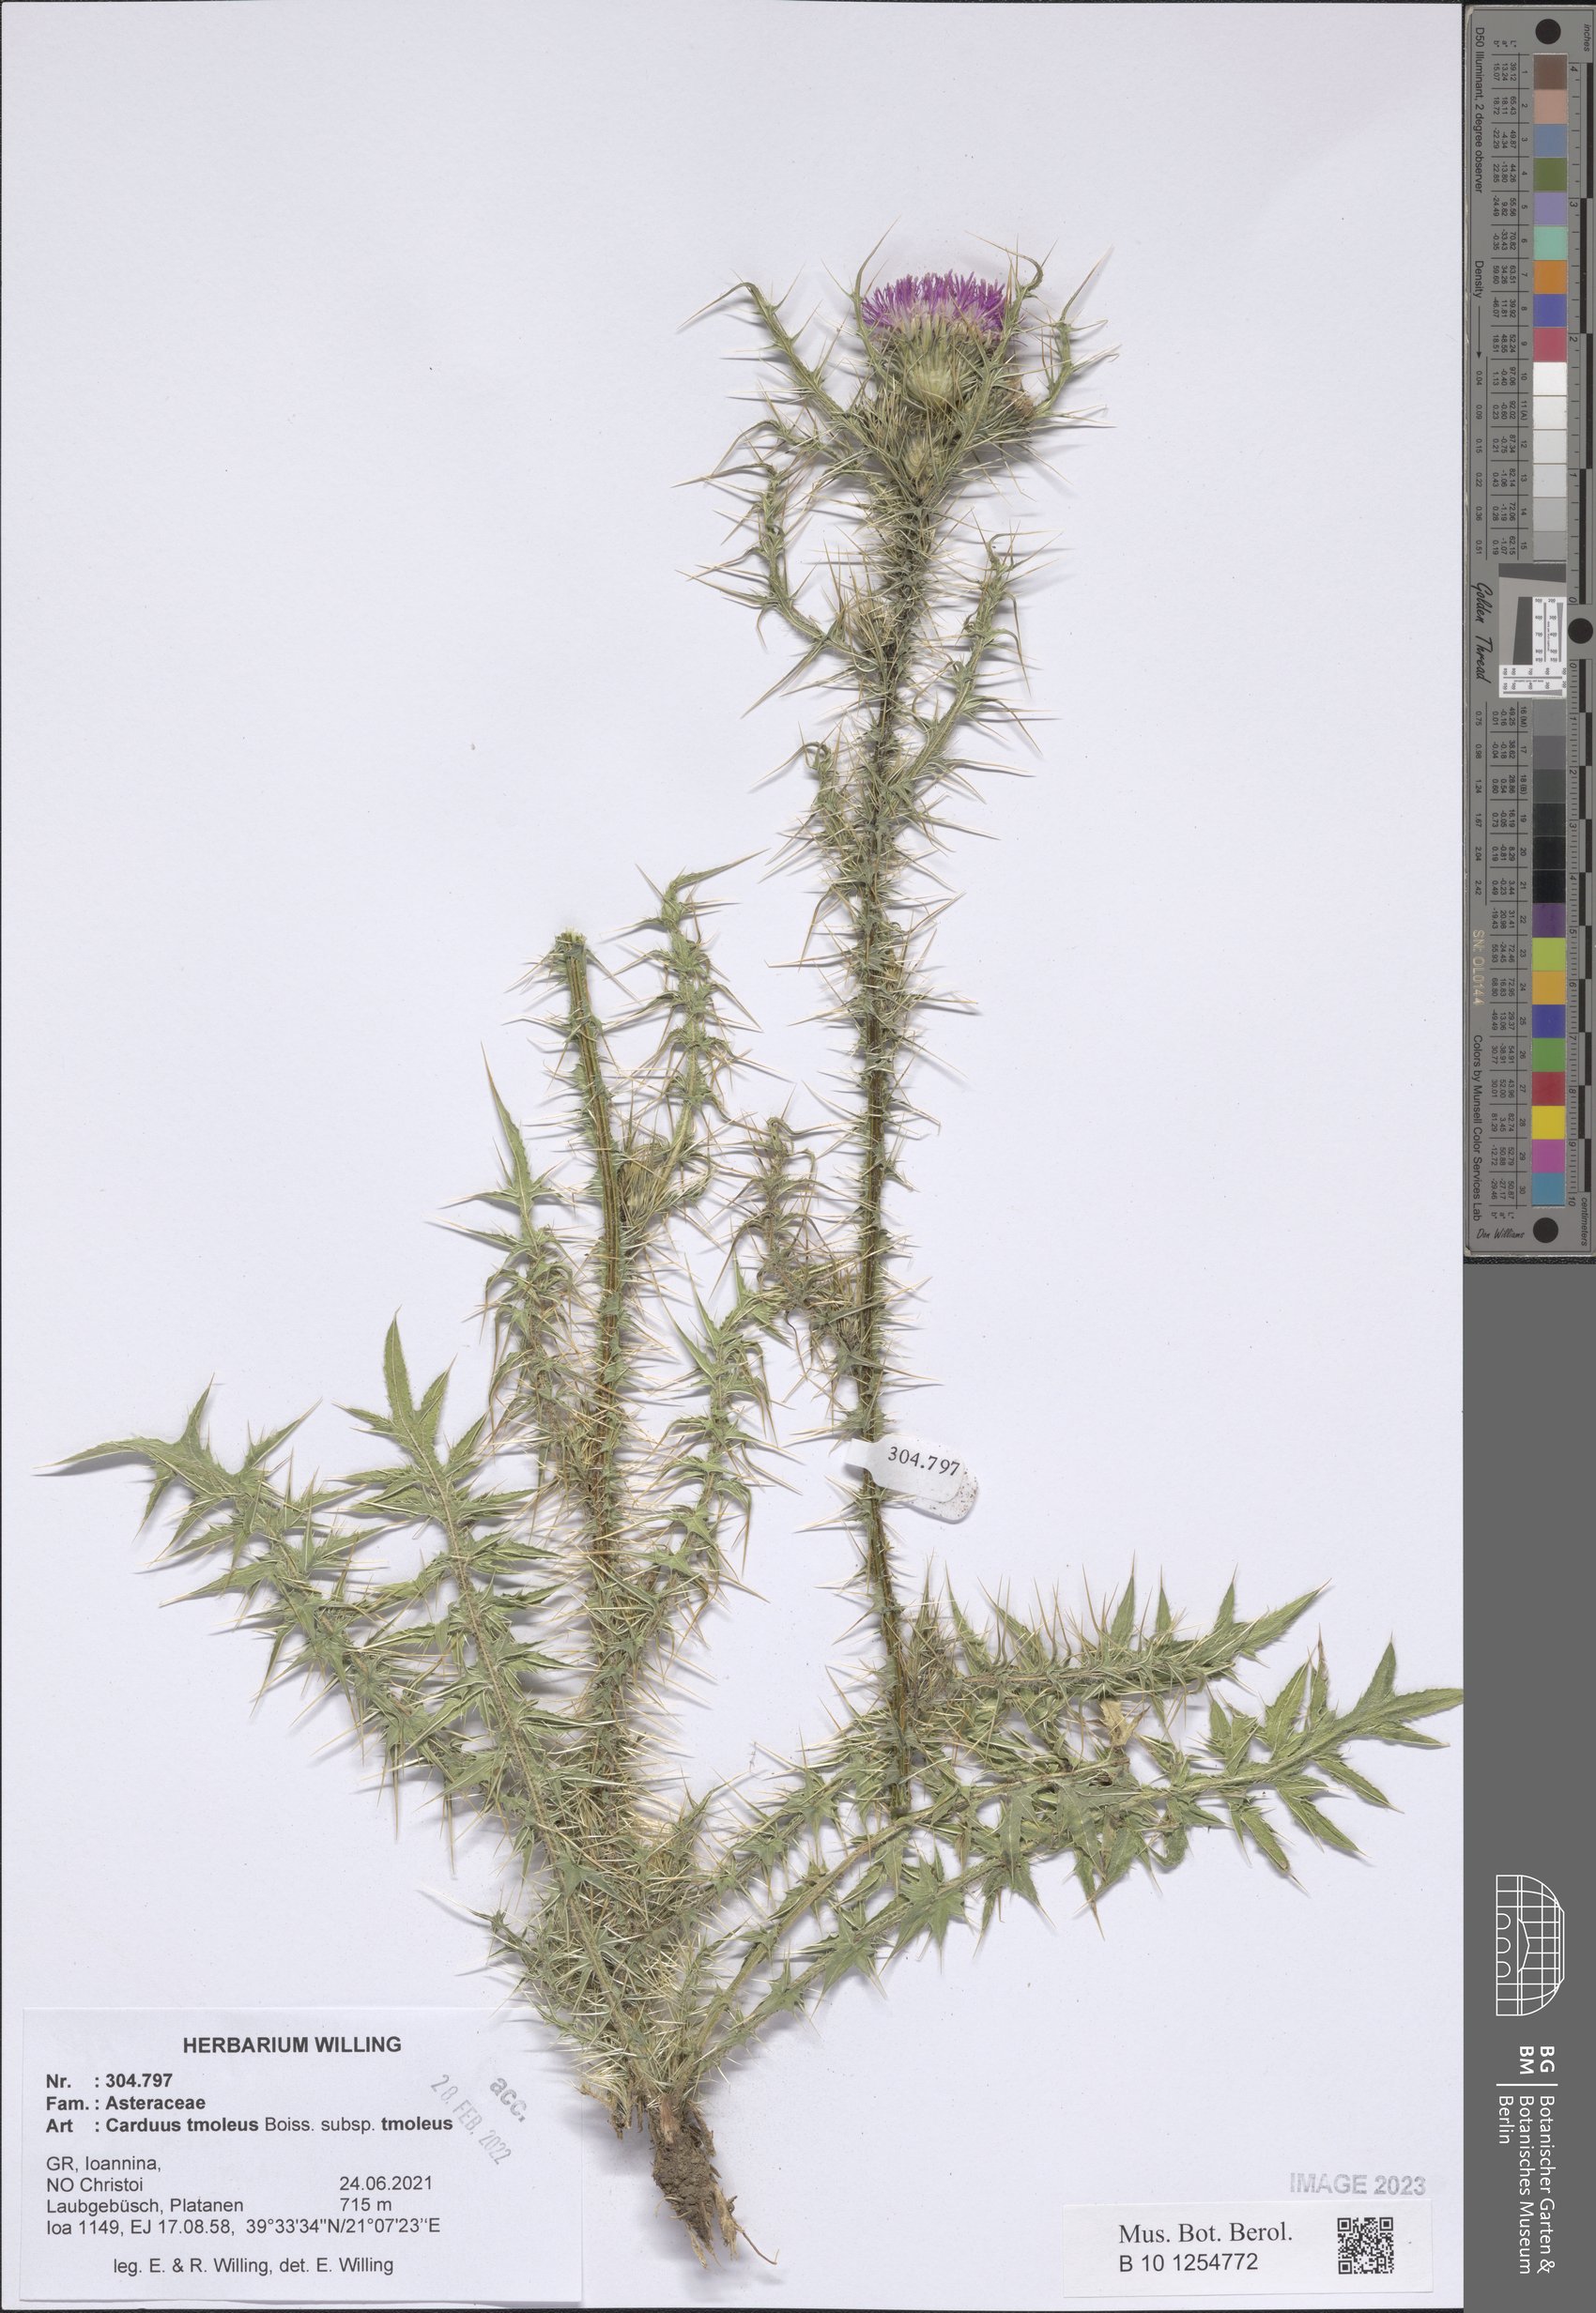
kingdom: Plantae
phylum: Tracheophyta
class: Magnoliopsida
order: Asterales
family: Asteraceae
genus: Carduus
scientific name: Carduus tmoleus
